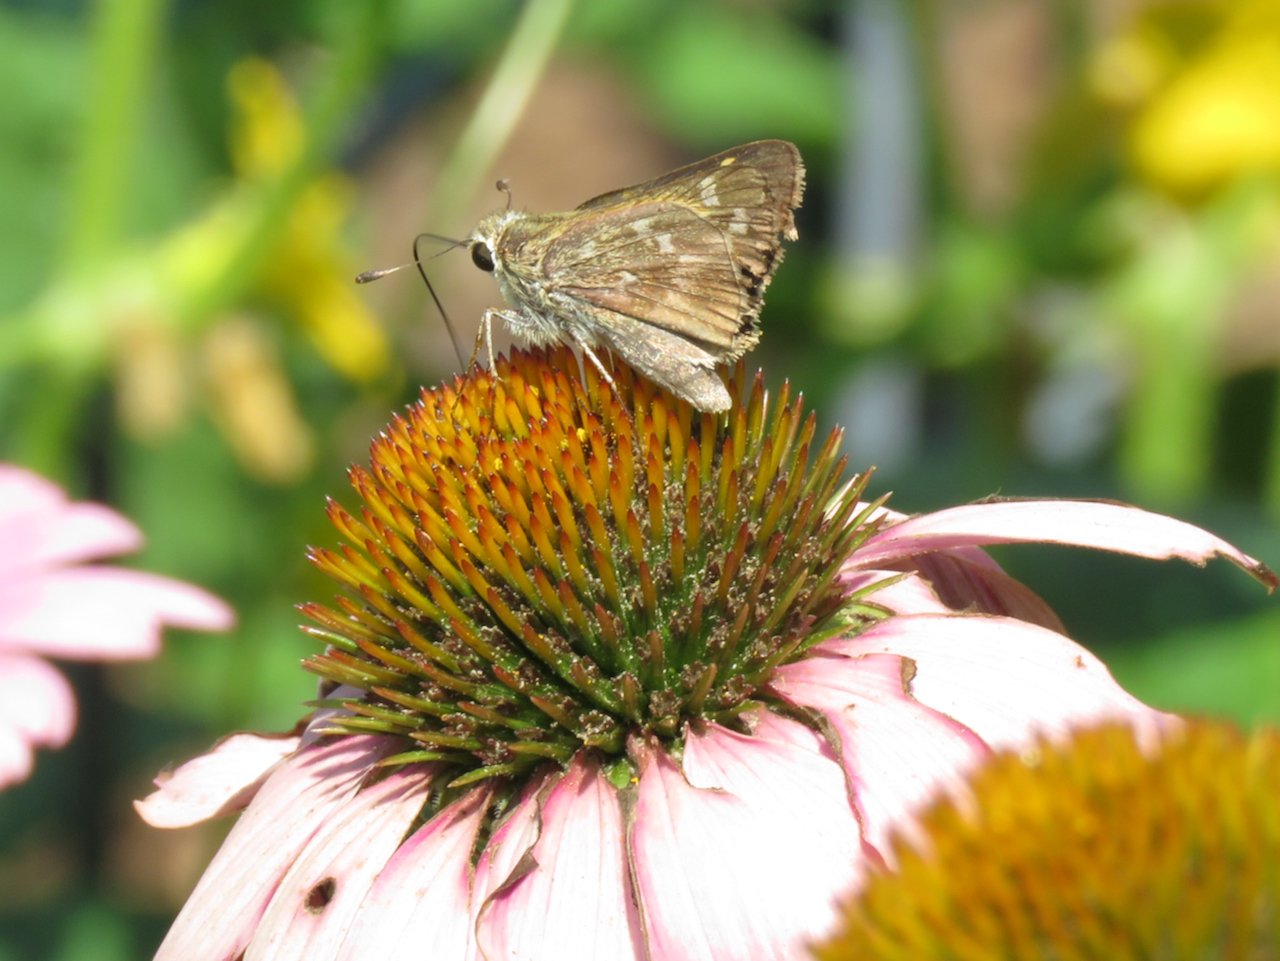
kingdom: Animalia
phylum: Arthropoda
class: Insecta
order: Lepidoptera
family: Hesperiidae
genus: Hylephila
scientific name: Hylephila phyleus
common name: Fiery Skipper
